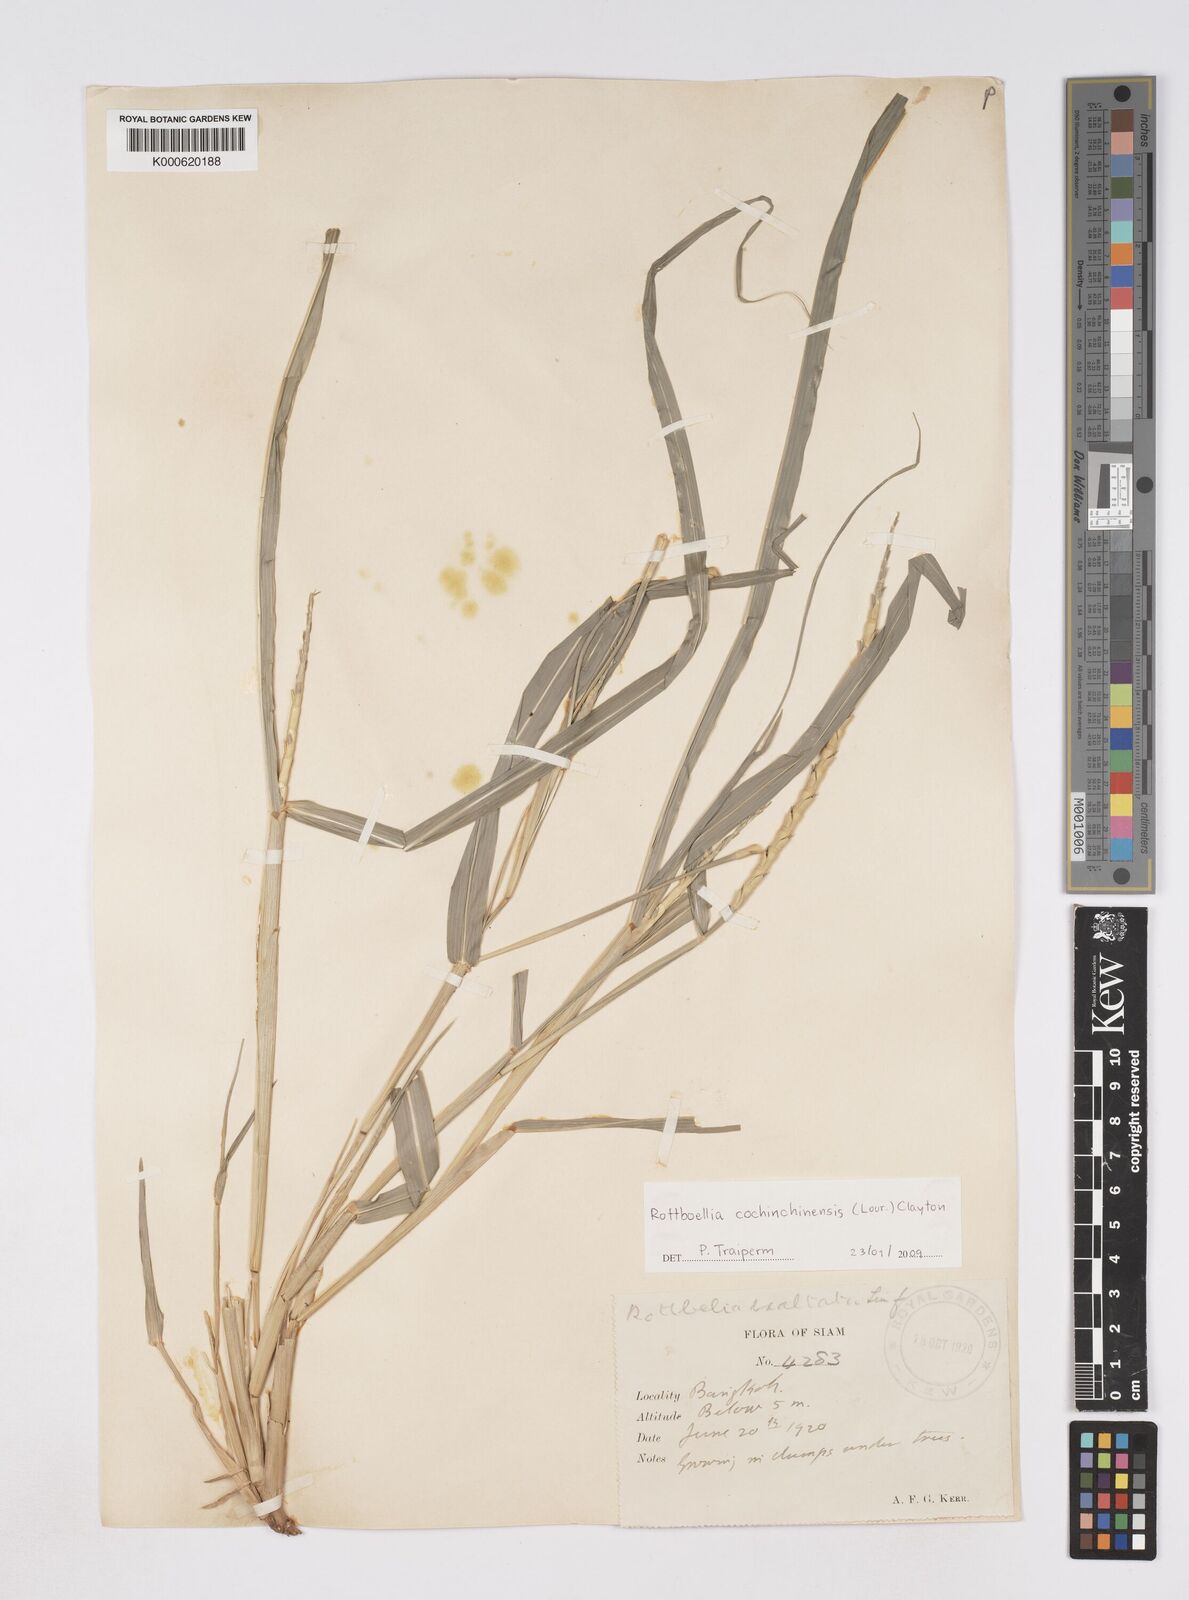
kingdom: Plantae
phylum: Tracheophyta
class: Liliopsida
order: Poales
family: Poaceae
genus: Rottboellia
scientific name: Rottboellia cochinchinensis
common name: Itchgrass
